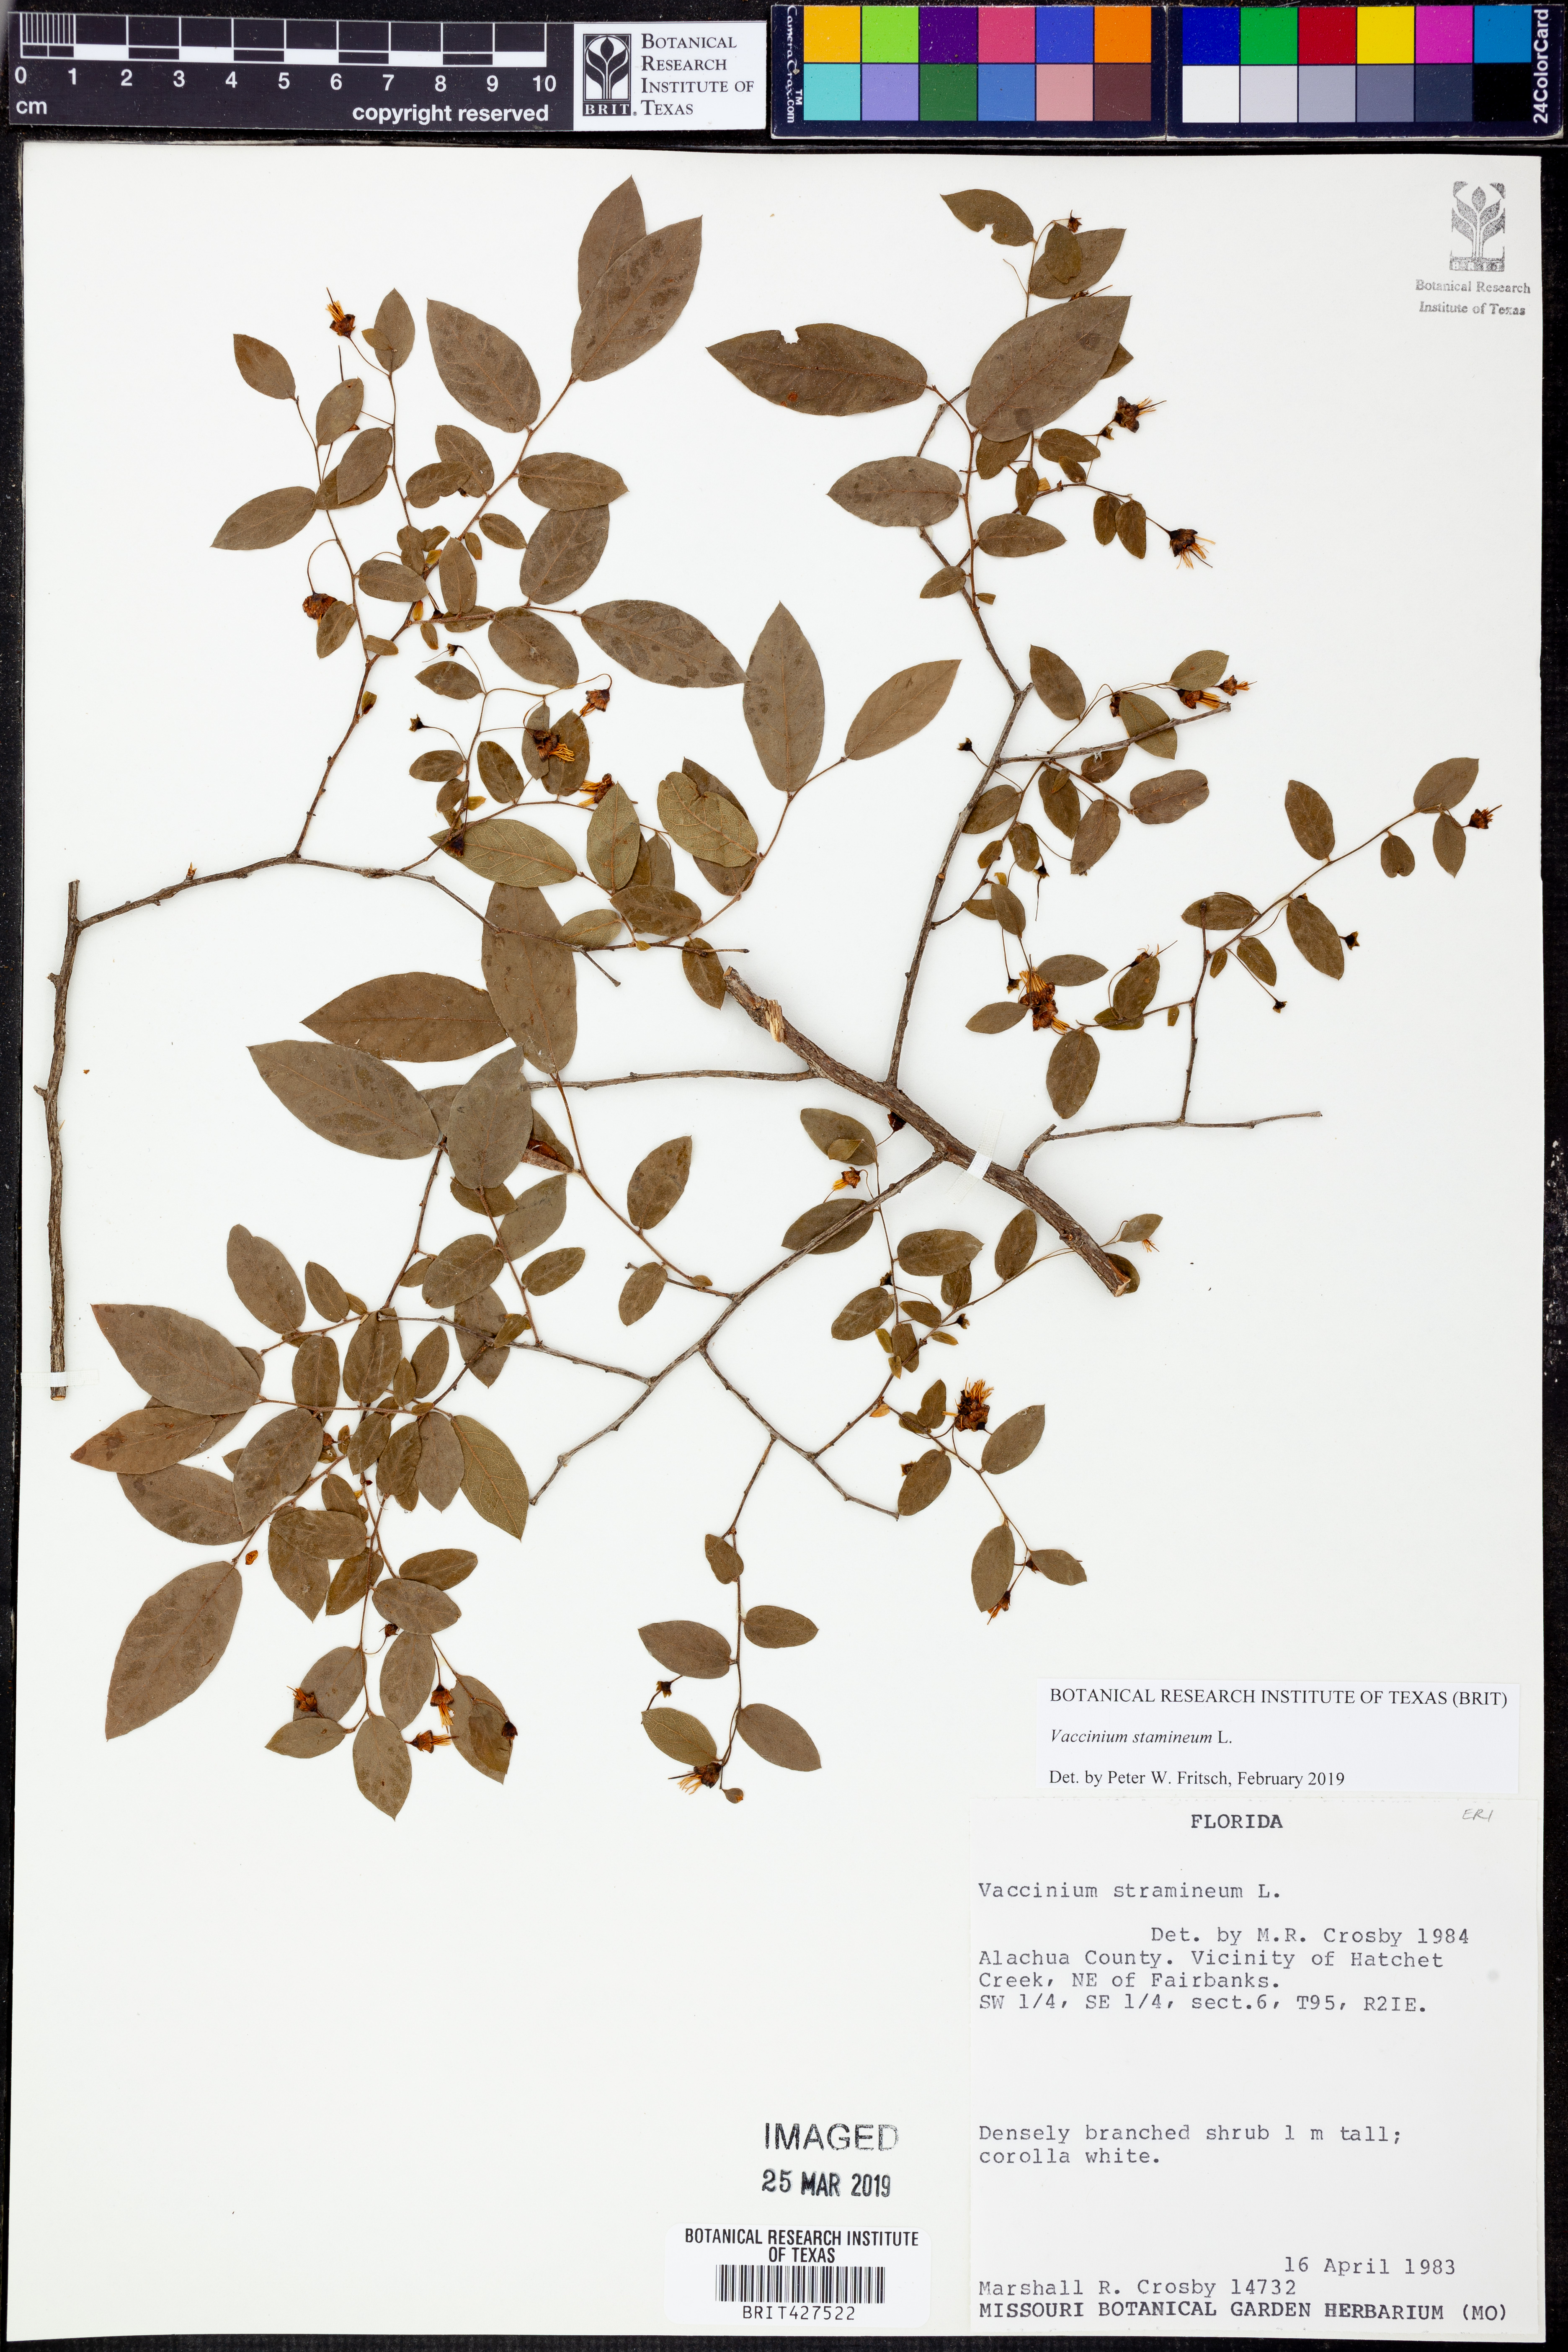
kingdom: Plantae
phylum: Tracheophyta
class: Magnoliopsida
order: Ericales
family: Ericaceae
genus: Vaccinium
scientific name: Vaccinium stamineum
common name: Deerberry
